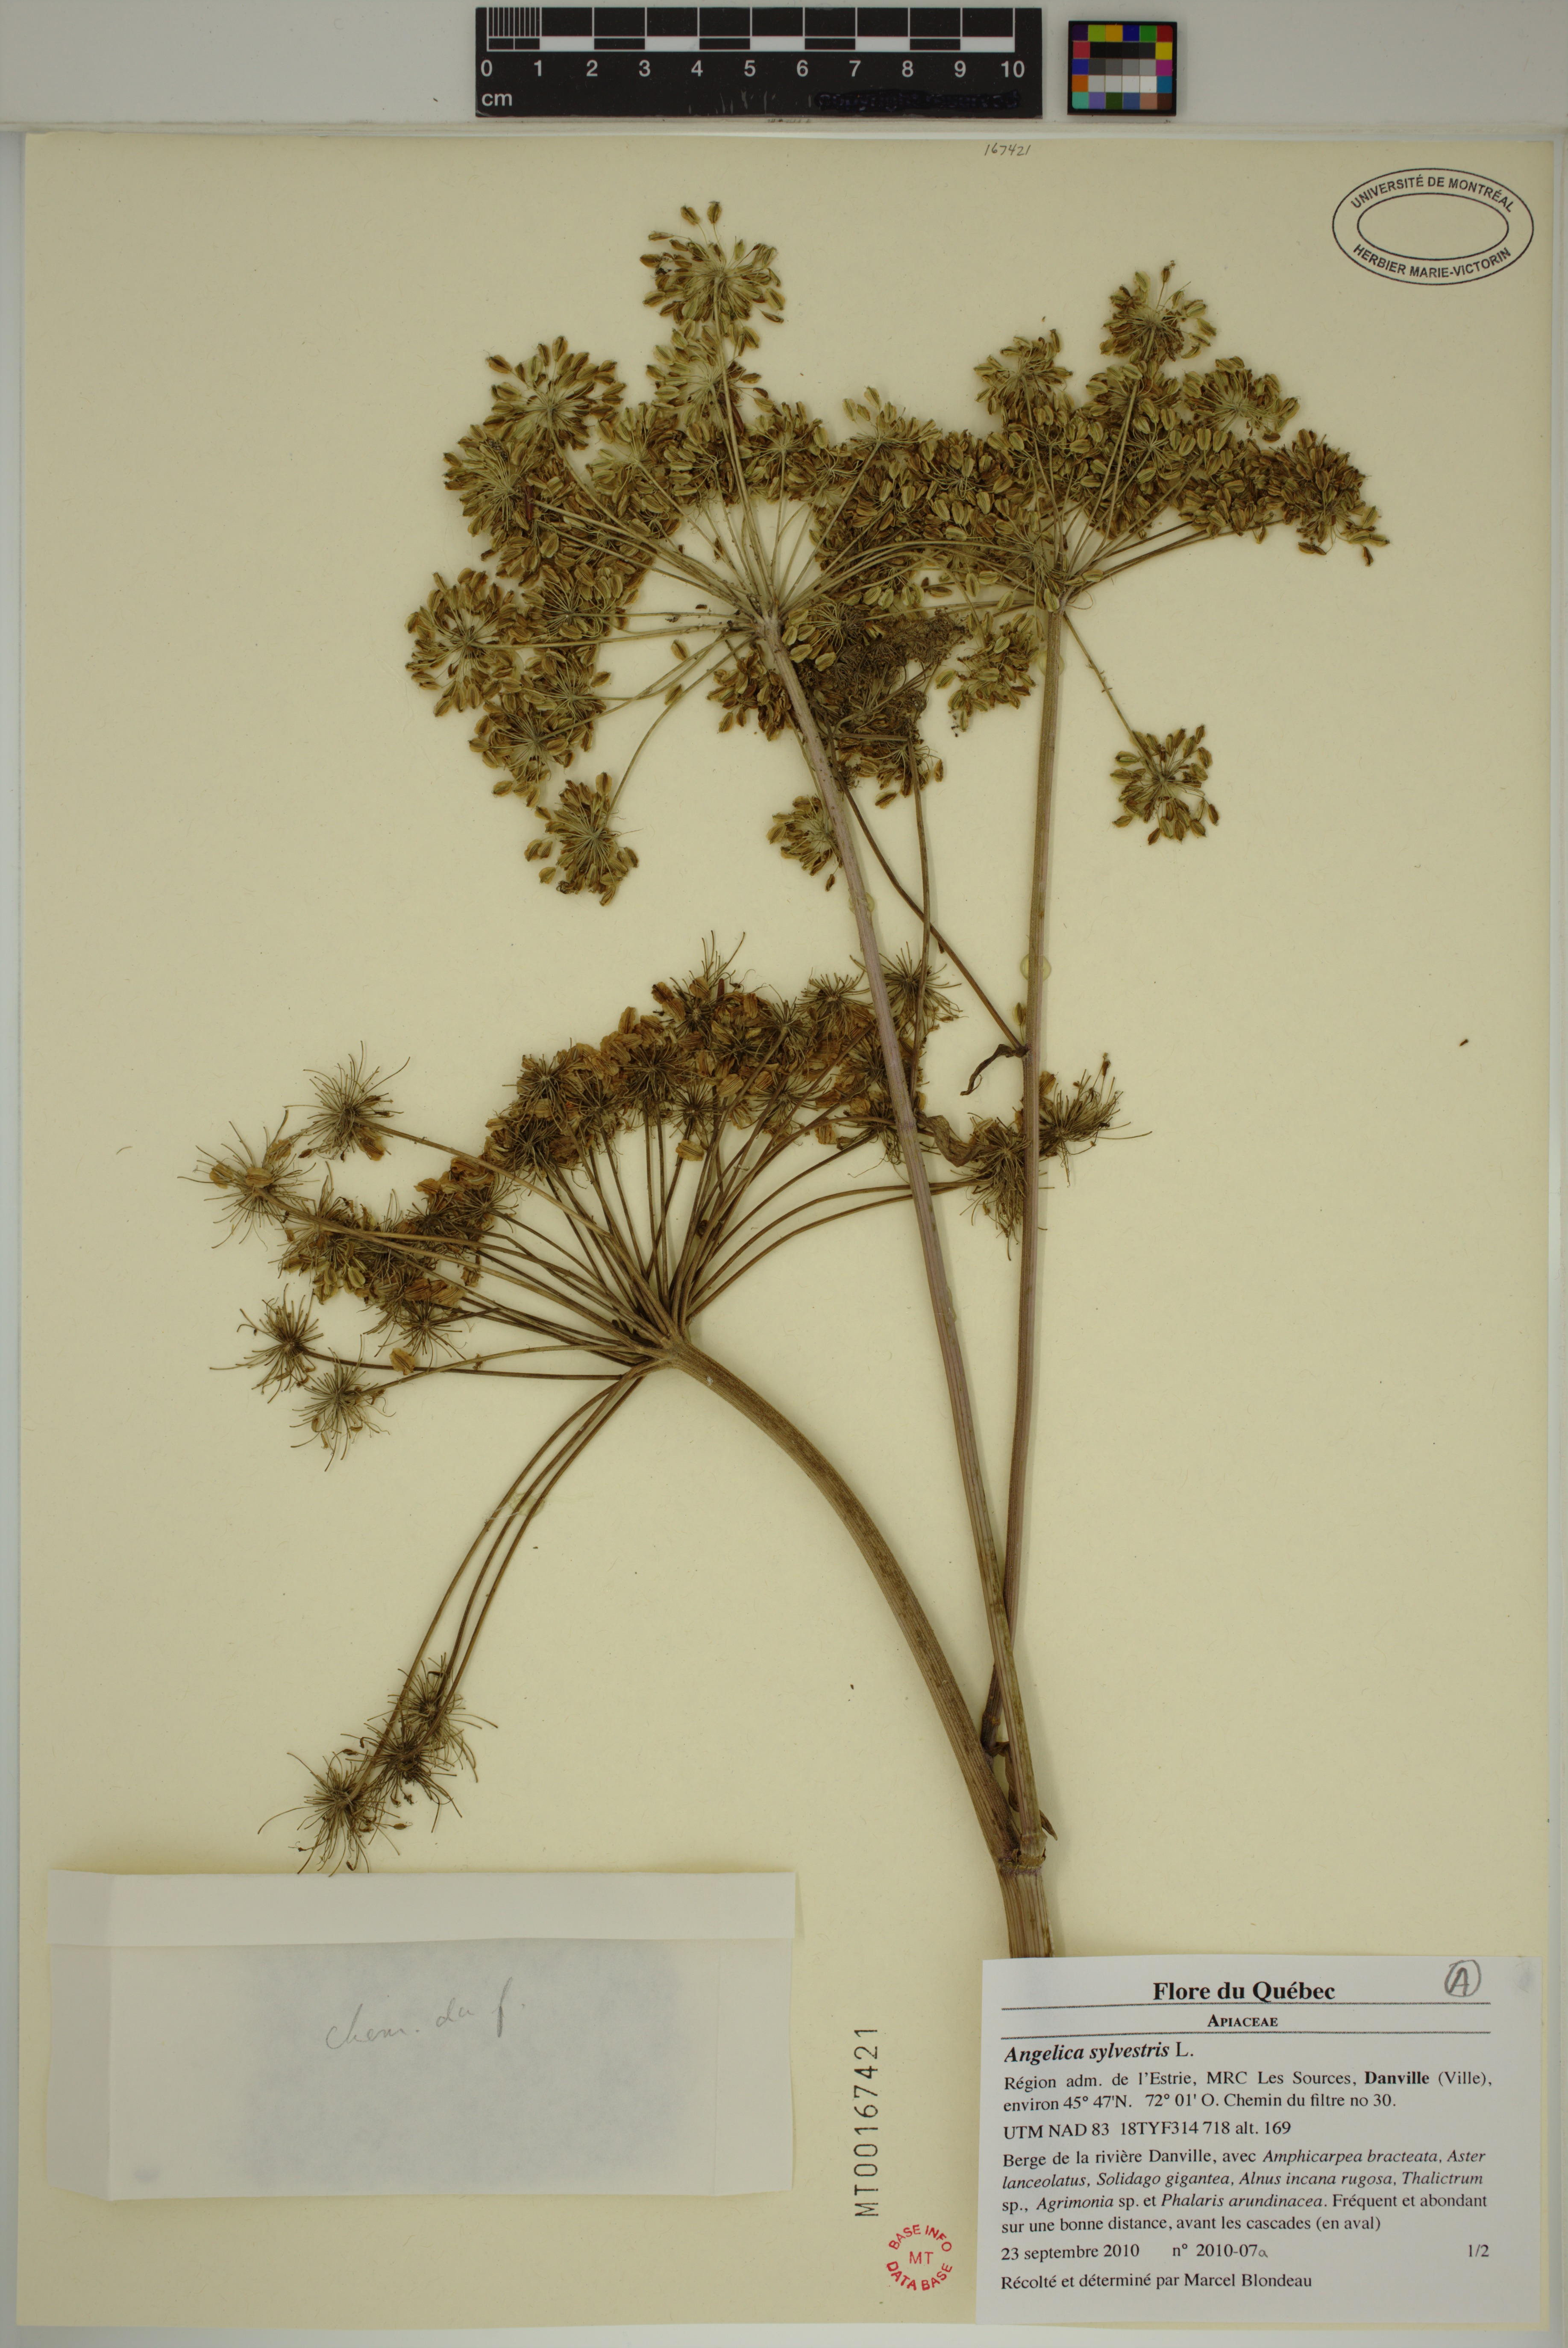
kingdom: Plantae
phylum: Tracheophyta
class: Magnoliopsida
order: Apiales
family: Apiaceae
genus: Angelica
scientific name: Angelica sylvestris
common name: Wild angelica
